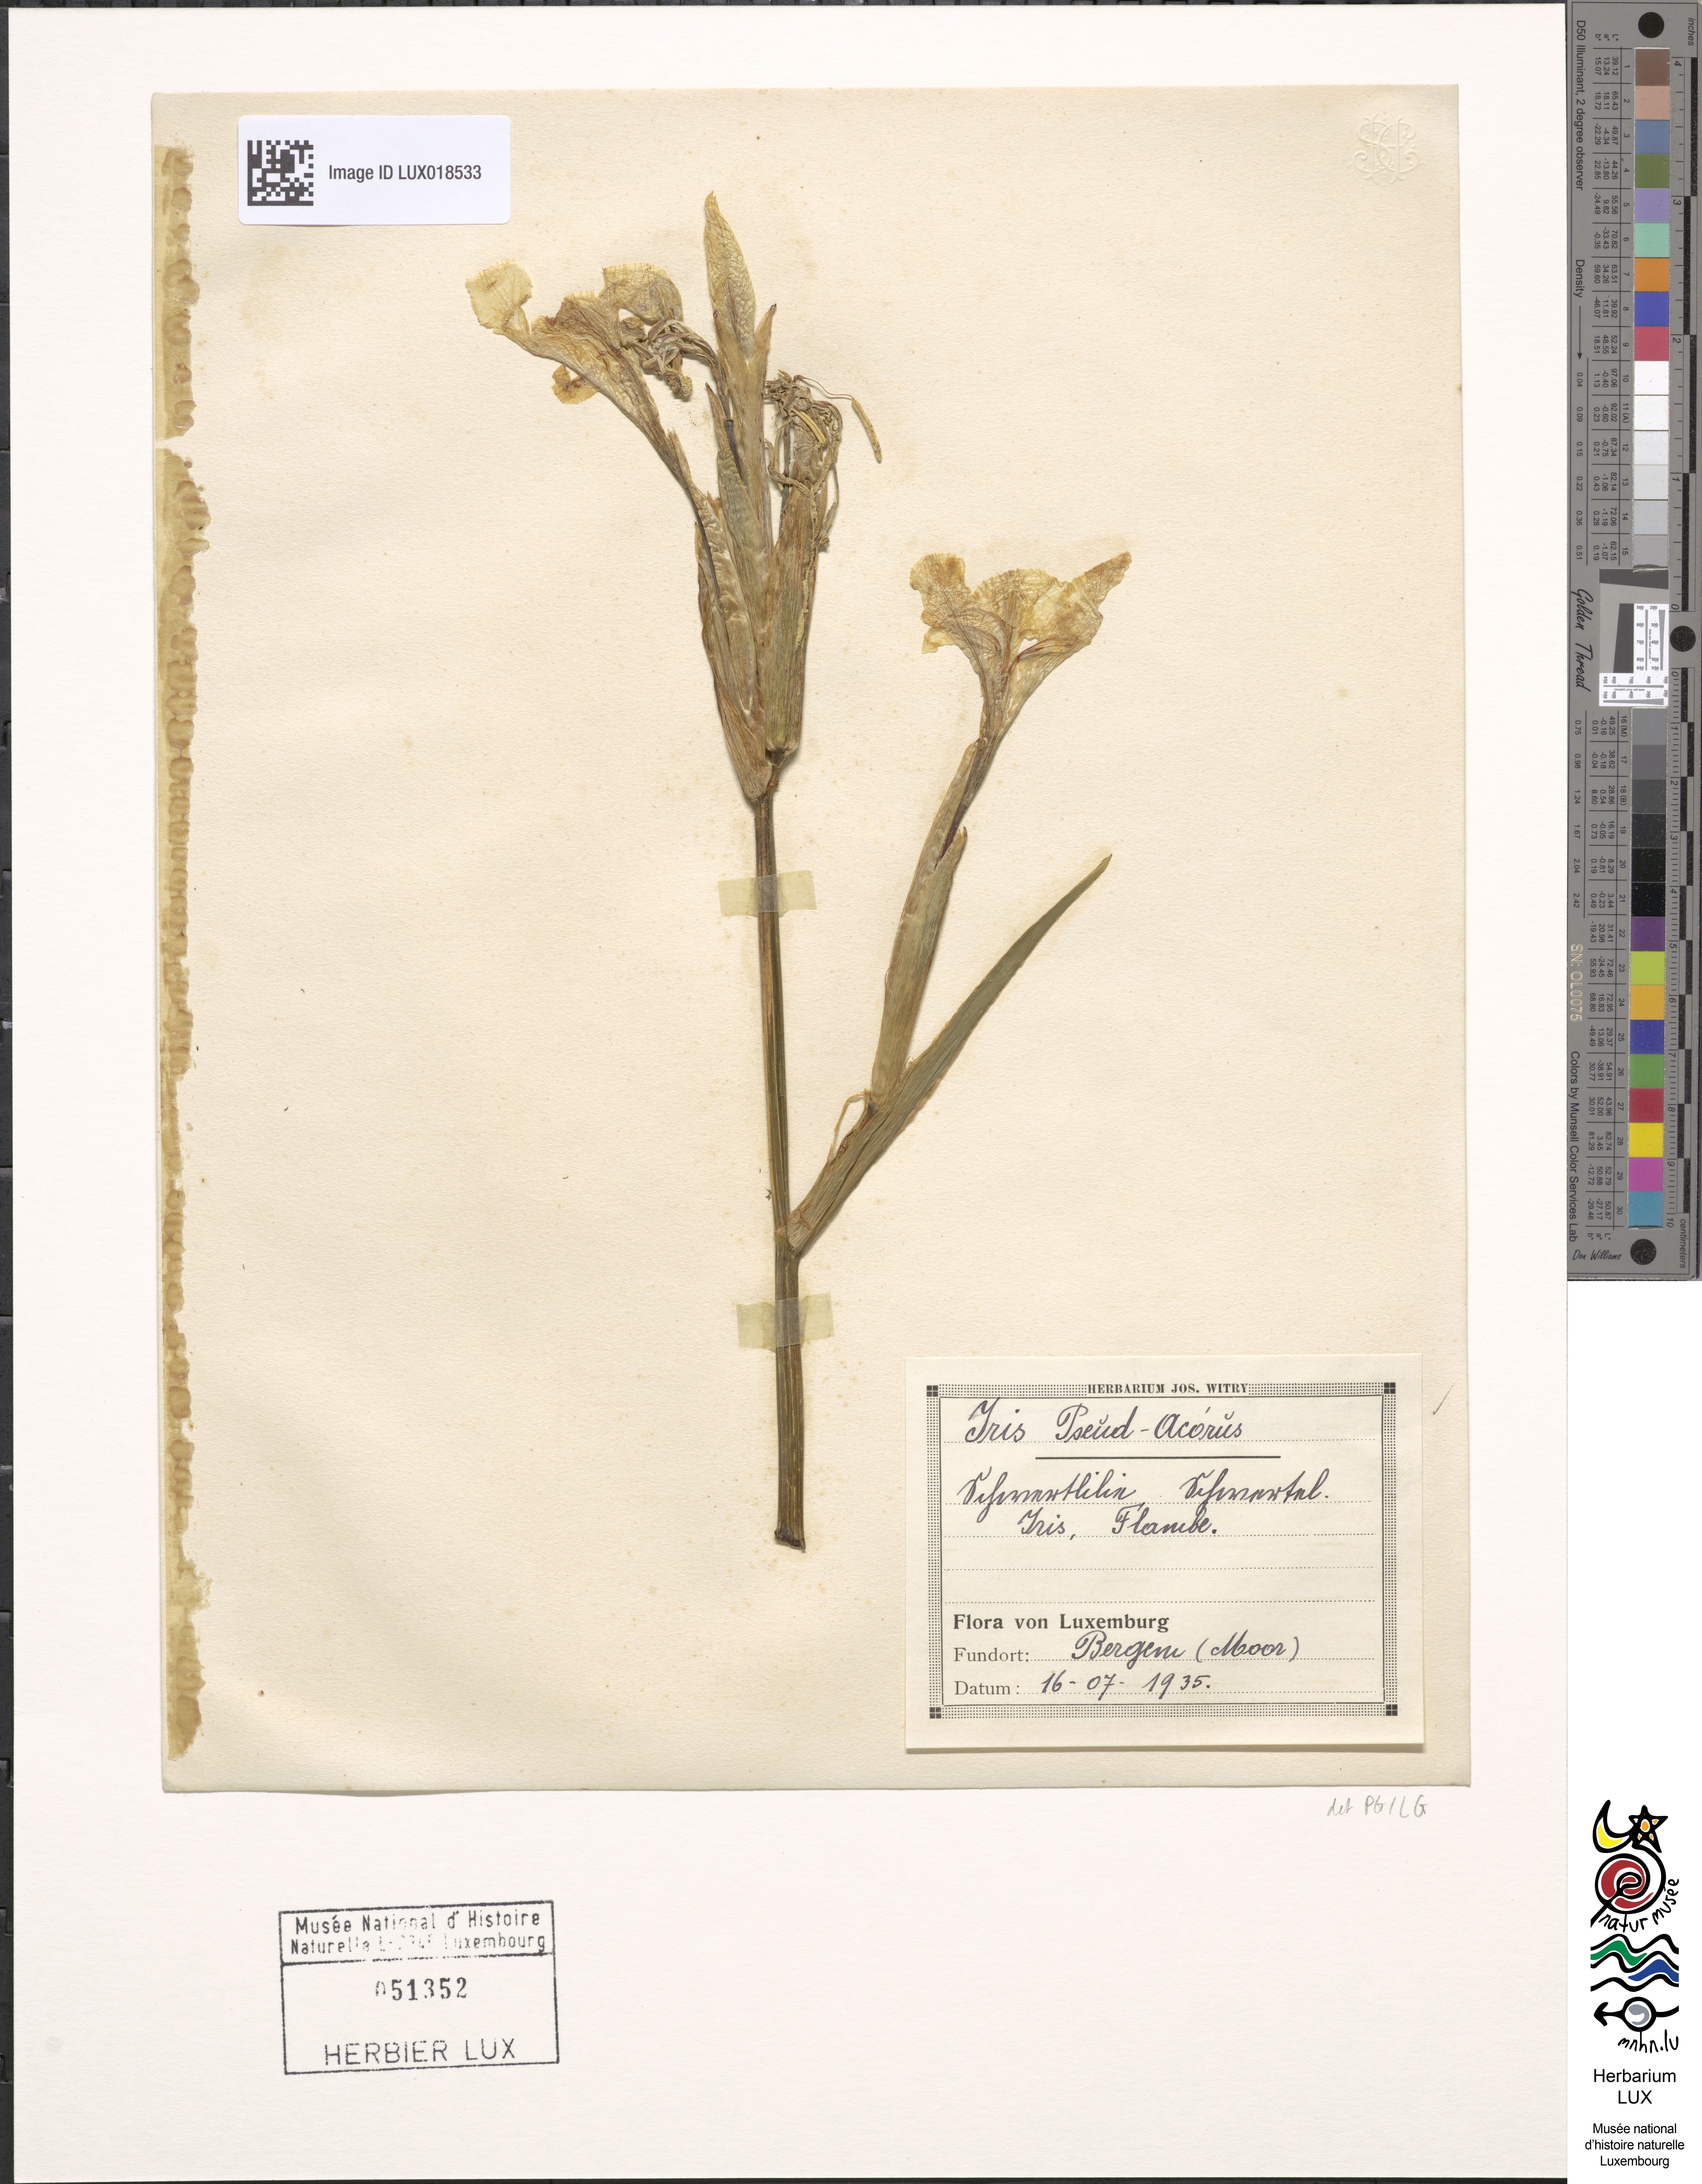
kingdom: Plantae
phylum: Tracheophyta
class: Liliopsida
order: Asparagales
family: Iridaceae
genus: Iris
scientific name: Iris pseudacorus
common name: Yellow flag
